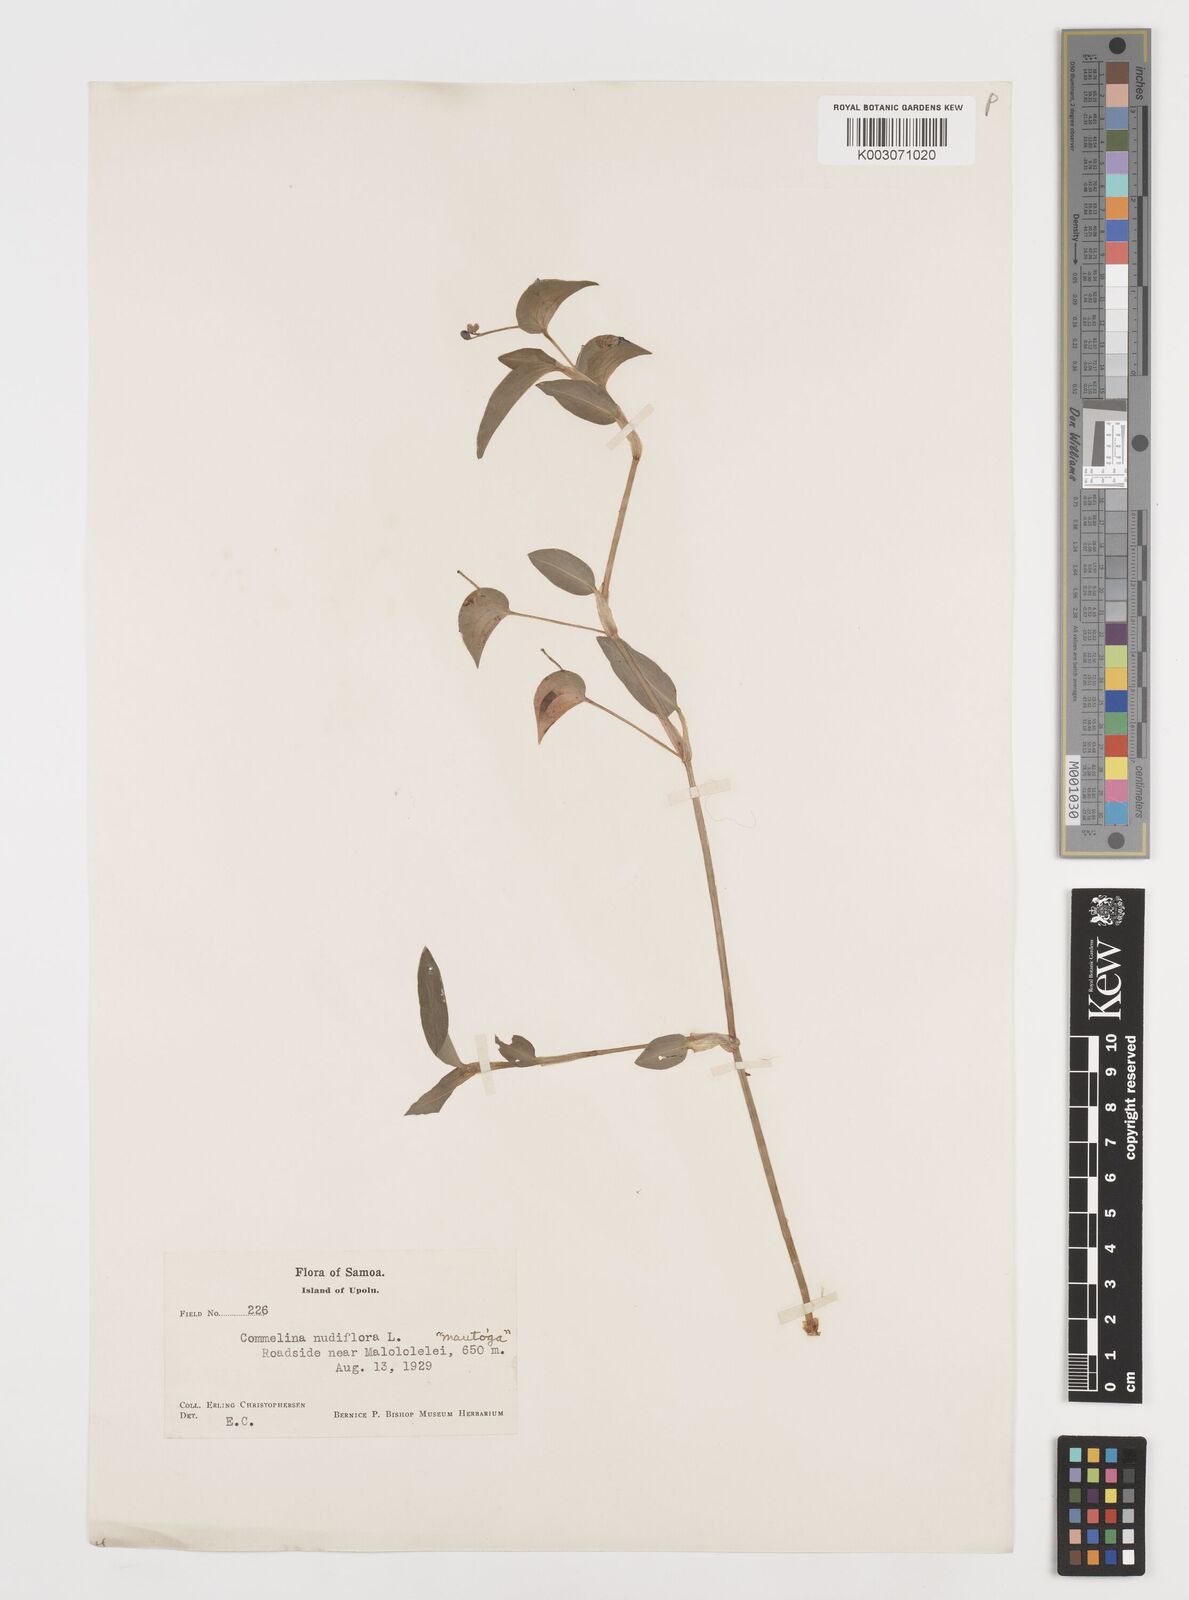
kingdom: Plantae
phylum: Tracheophyta
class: Liliopsida
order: Commelinales
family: Commelinaceae
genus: Commelina
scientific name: Commelina diffusa
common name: Climbing dayflower
